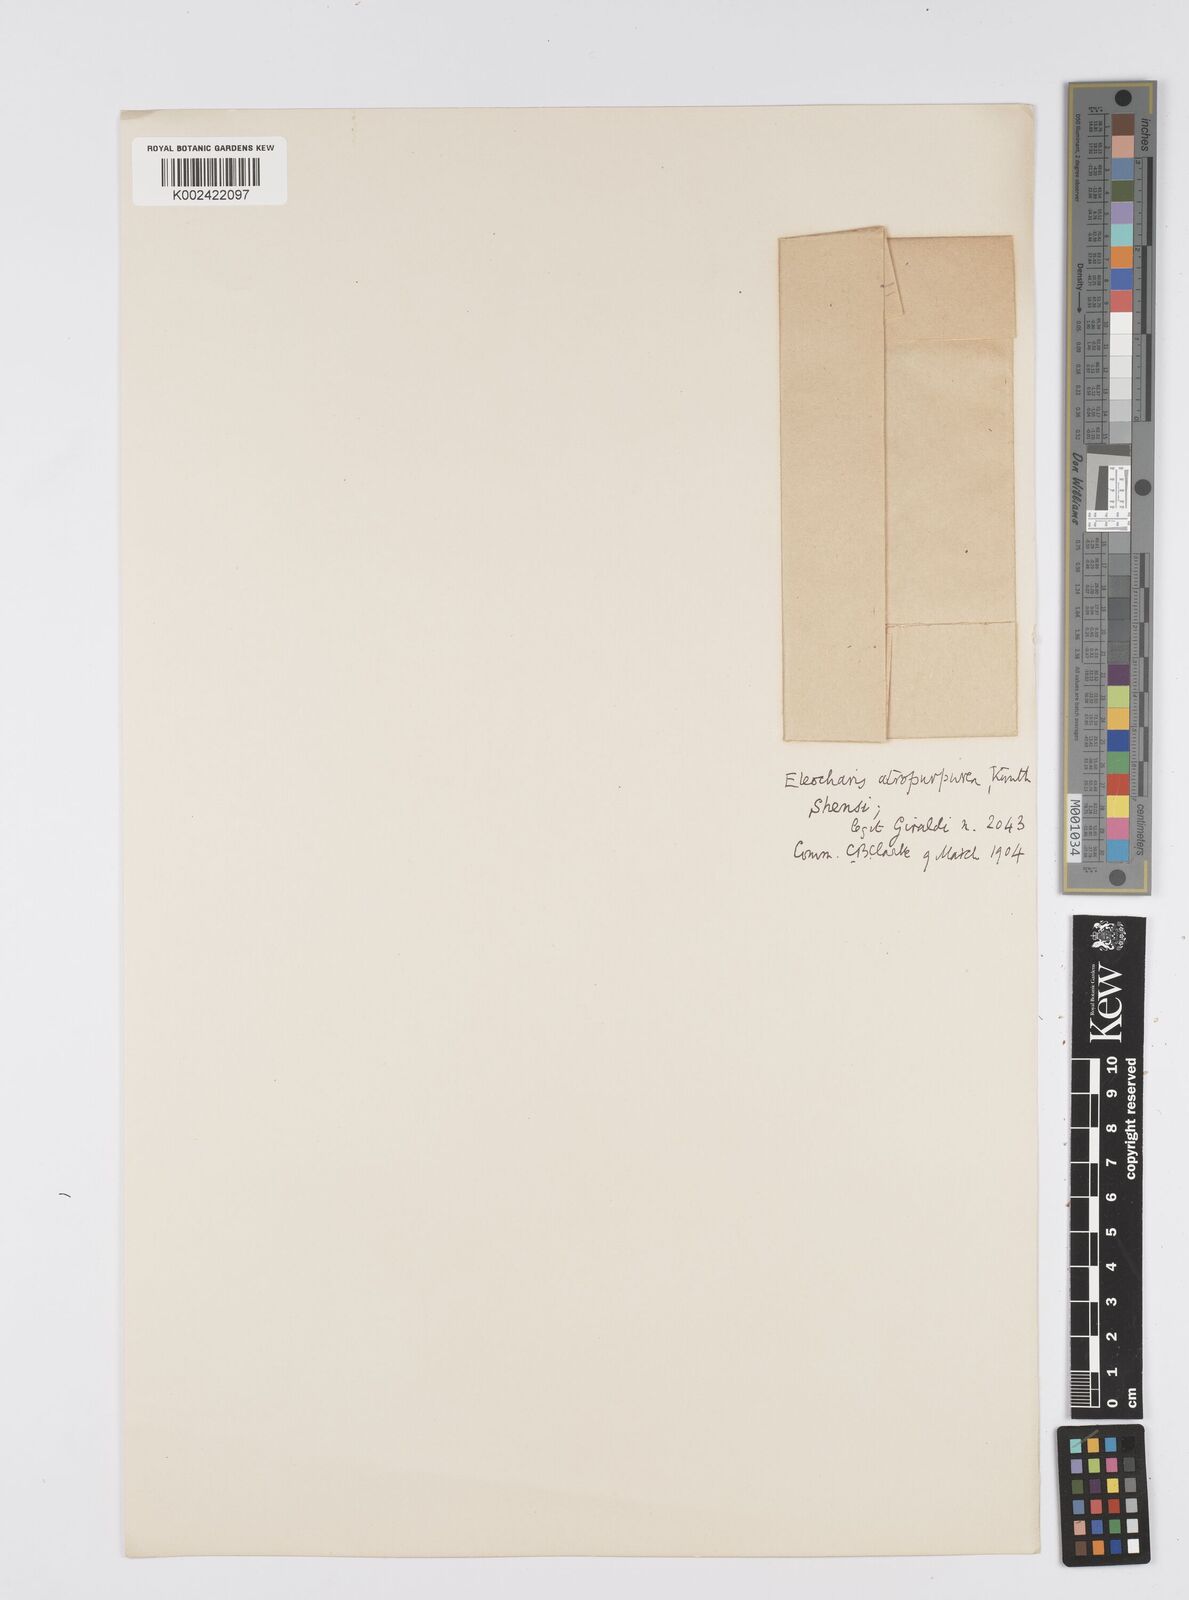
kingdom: Plantae
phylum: Tracheophyta
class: Liliopsida
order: Poales
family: Cyperaceae
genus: Eleocharis
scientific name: Eleocharis atropurpurea
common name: Purple spikerush
